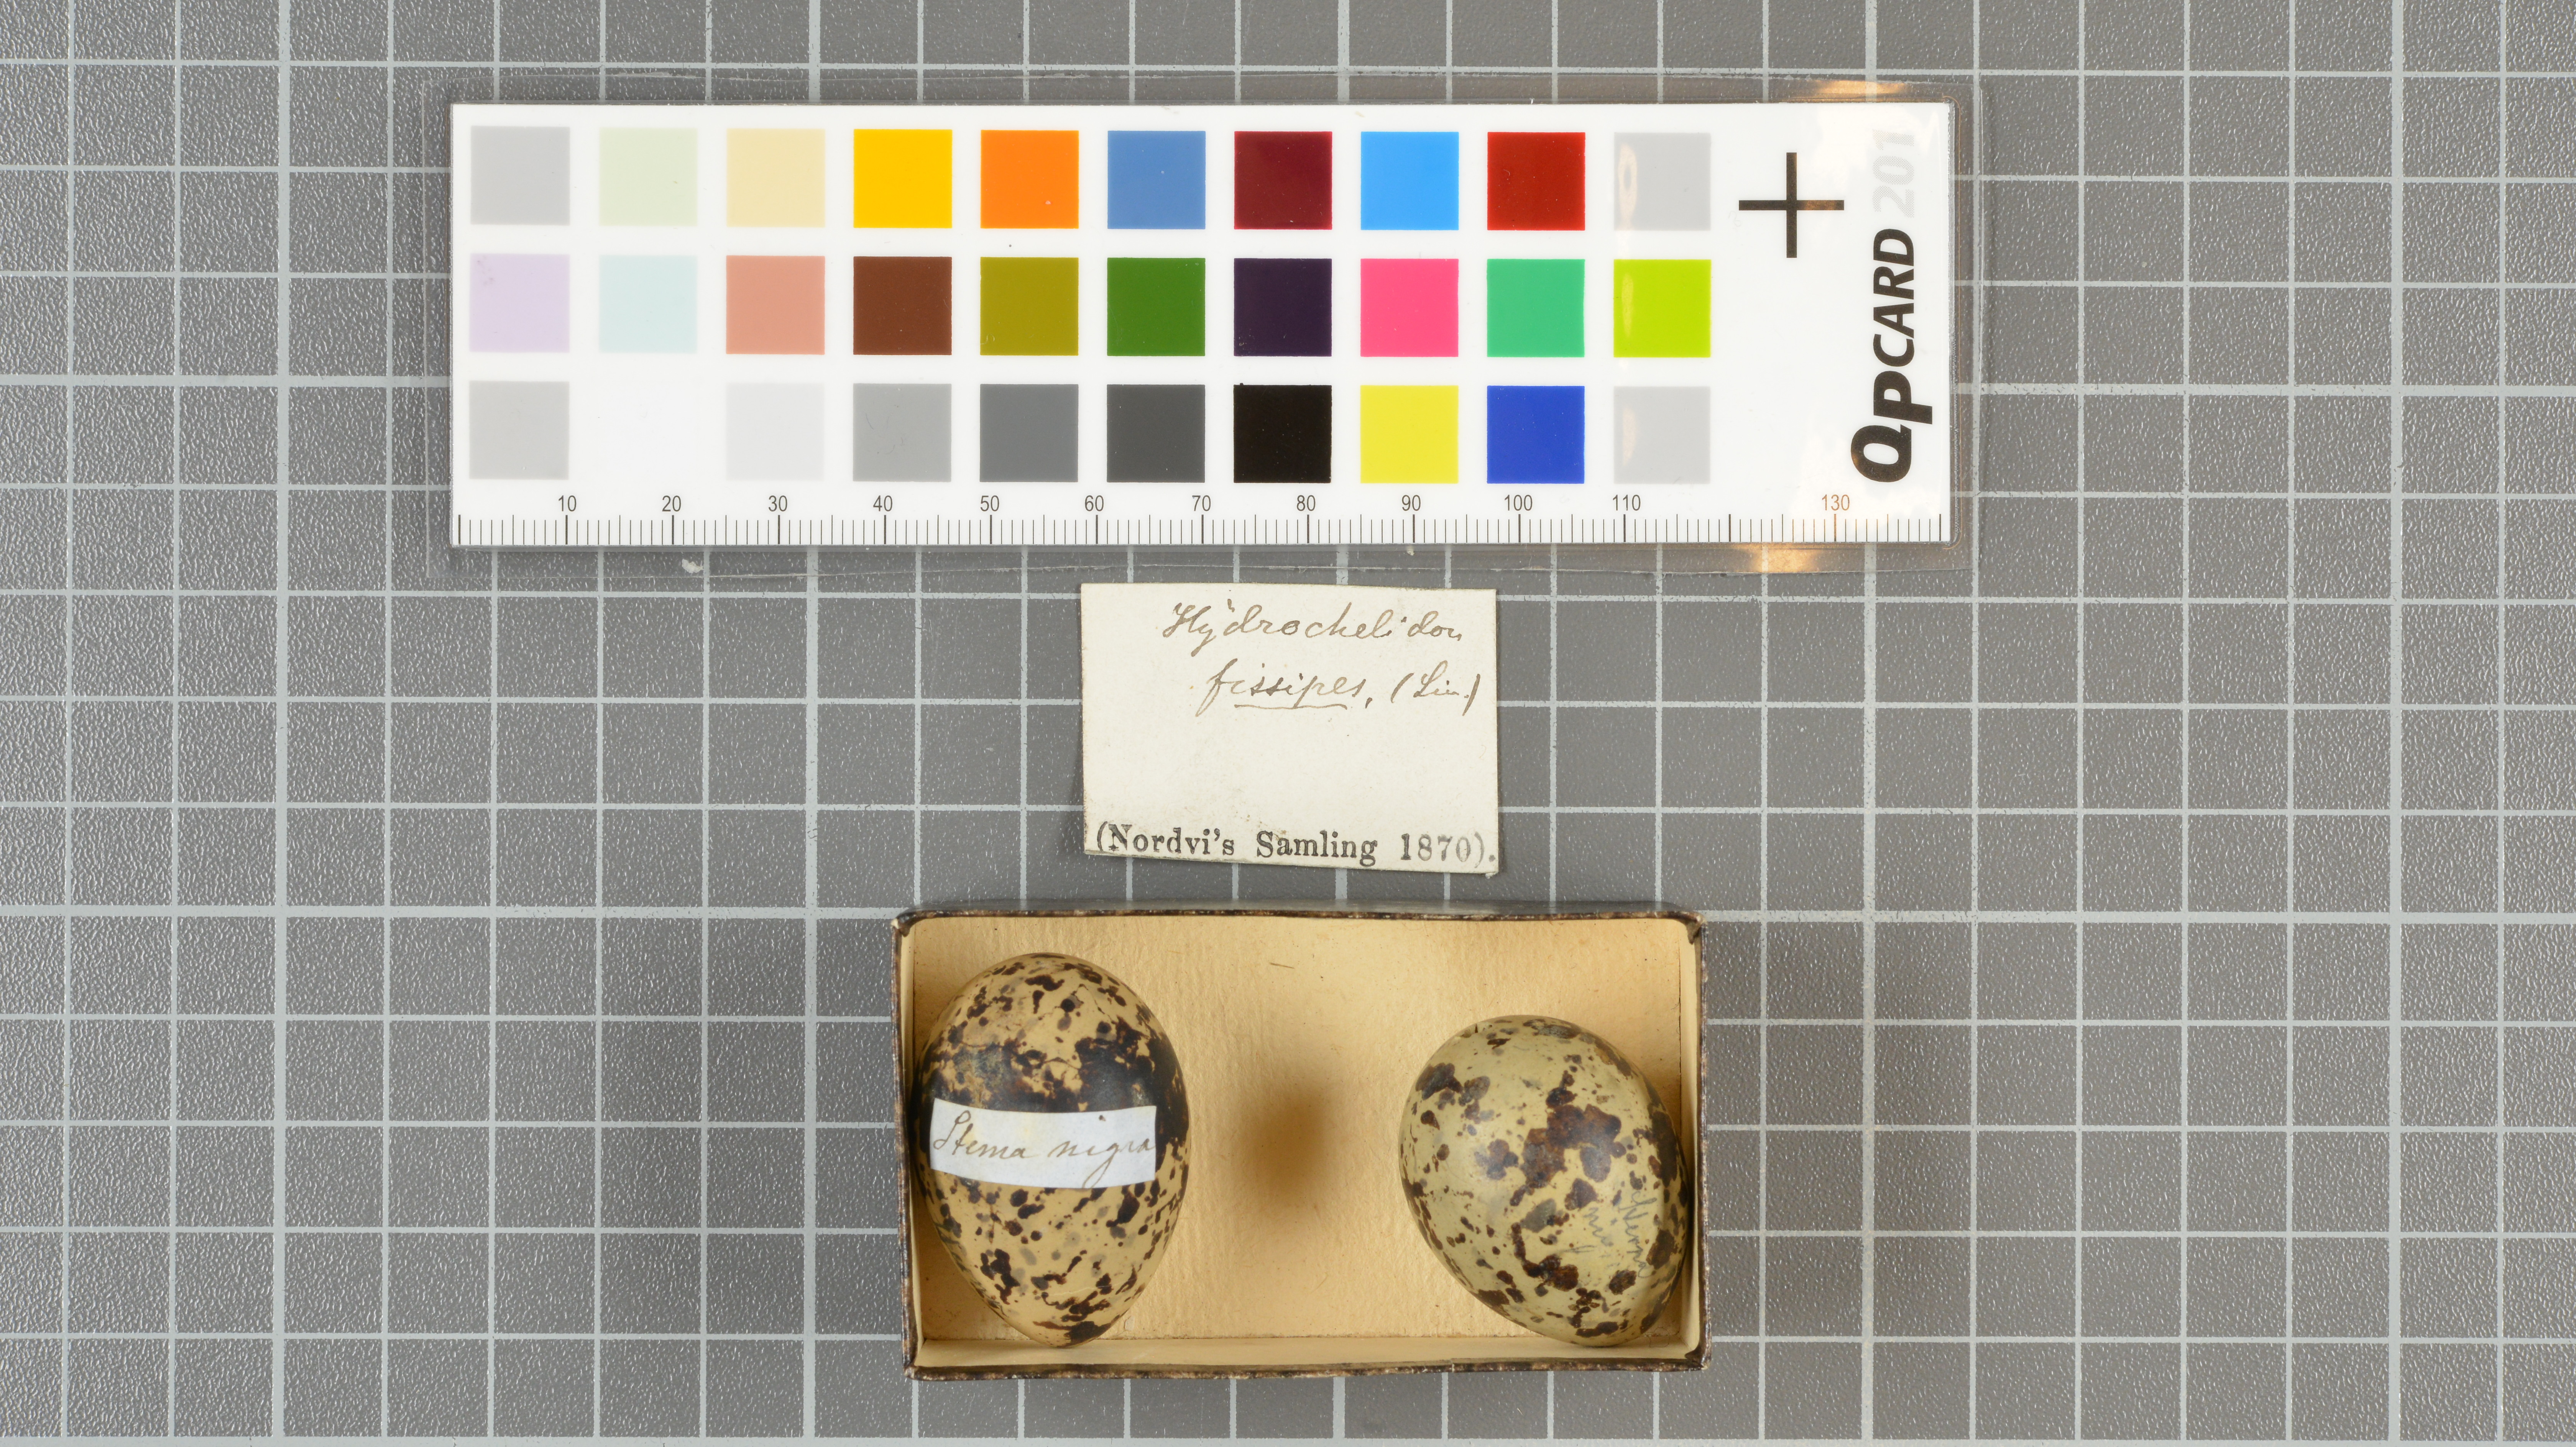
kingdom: Animalia
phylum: Chordata
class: Aves
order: Charadriiformes
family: Laridae
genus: Chlidonias
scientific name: Chlidonias niger
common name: Black tern
